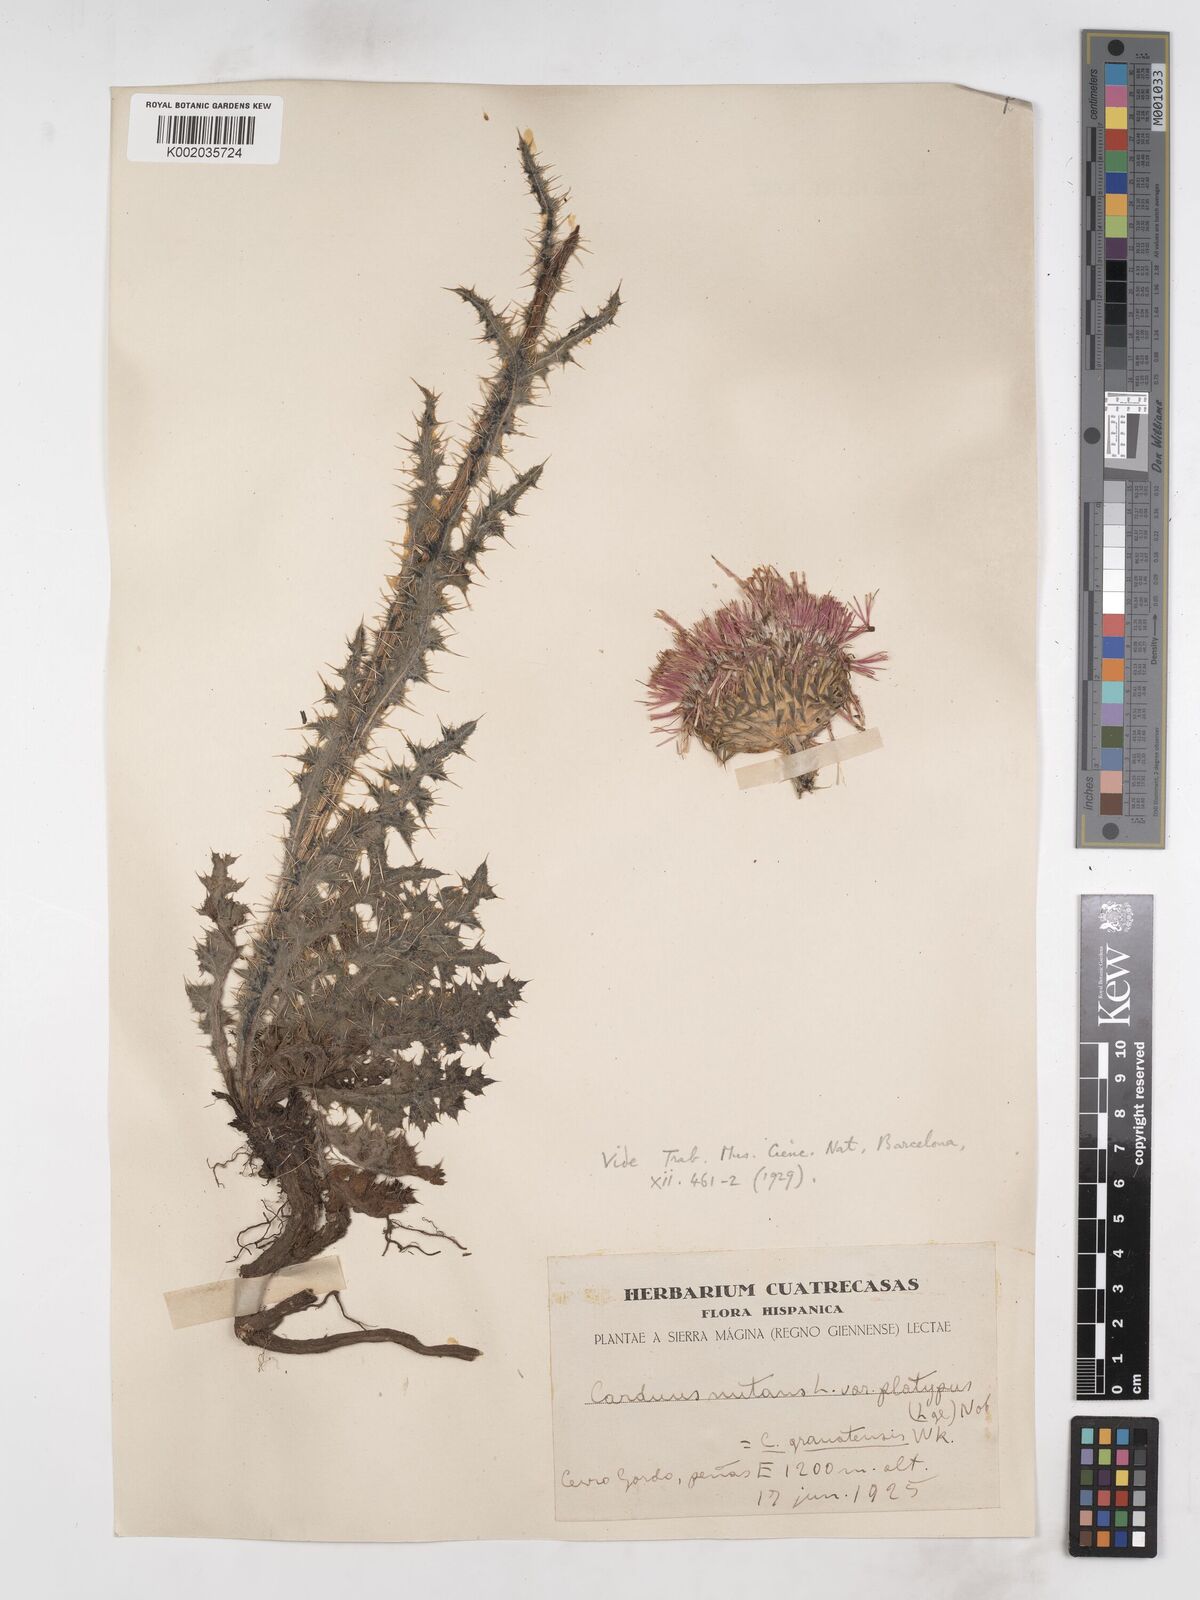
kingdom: Plantae
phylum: Tracheophyta
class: Magnoliopsida
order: Asterales
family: Asteraceae
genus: Carduus
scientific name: Carduus platypus
